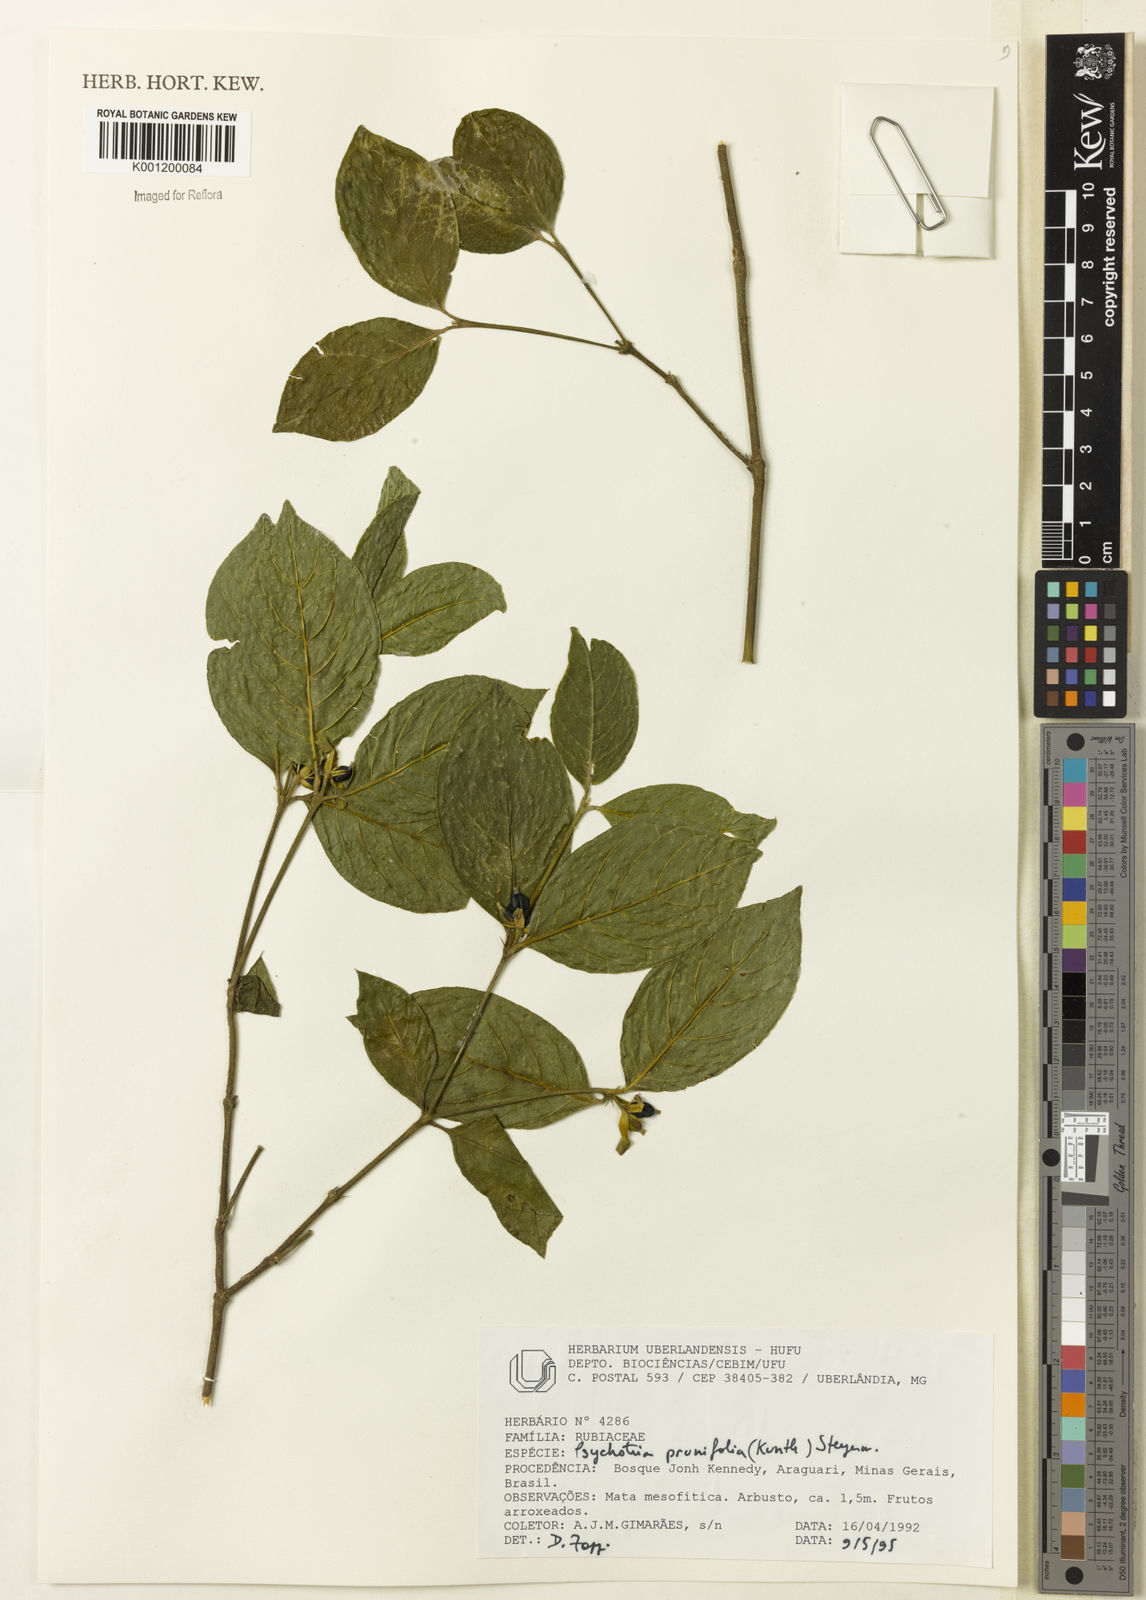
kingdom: Plantae
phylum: Tracheophyta
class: Magnoliopsida
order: Gentianales
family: Rubiaceae
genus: Palicourea
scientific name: Palicourea prunifolia
